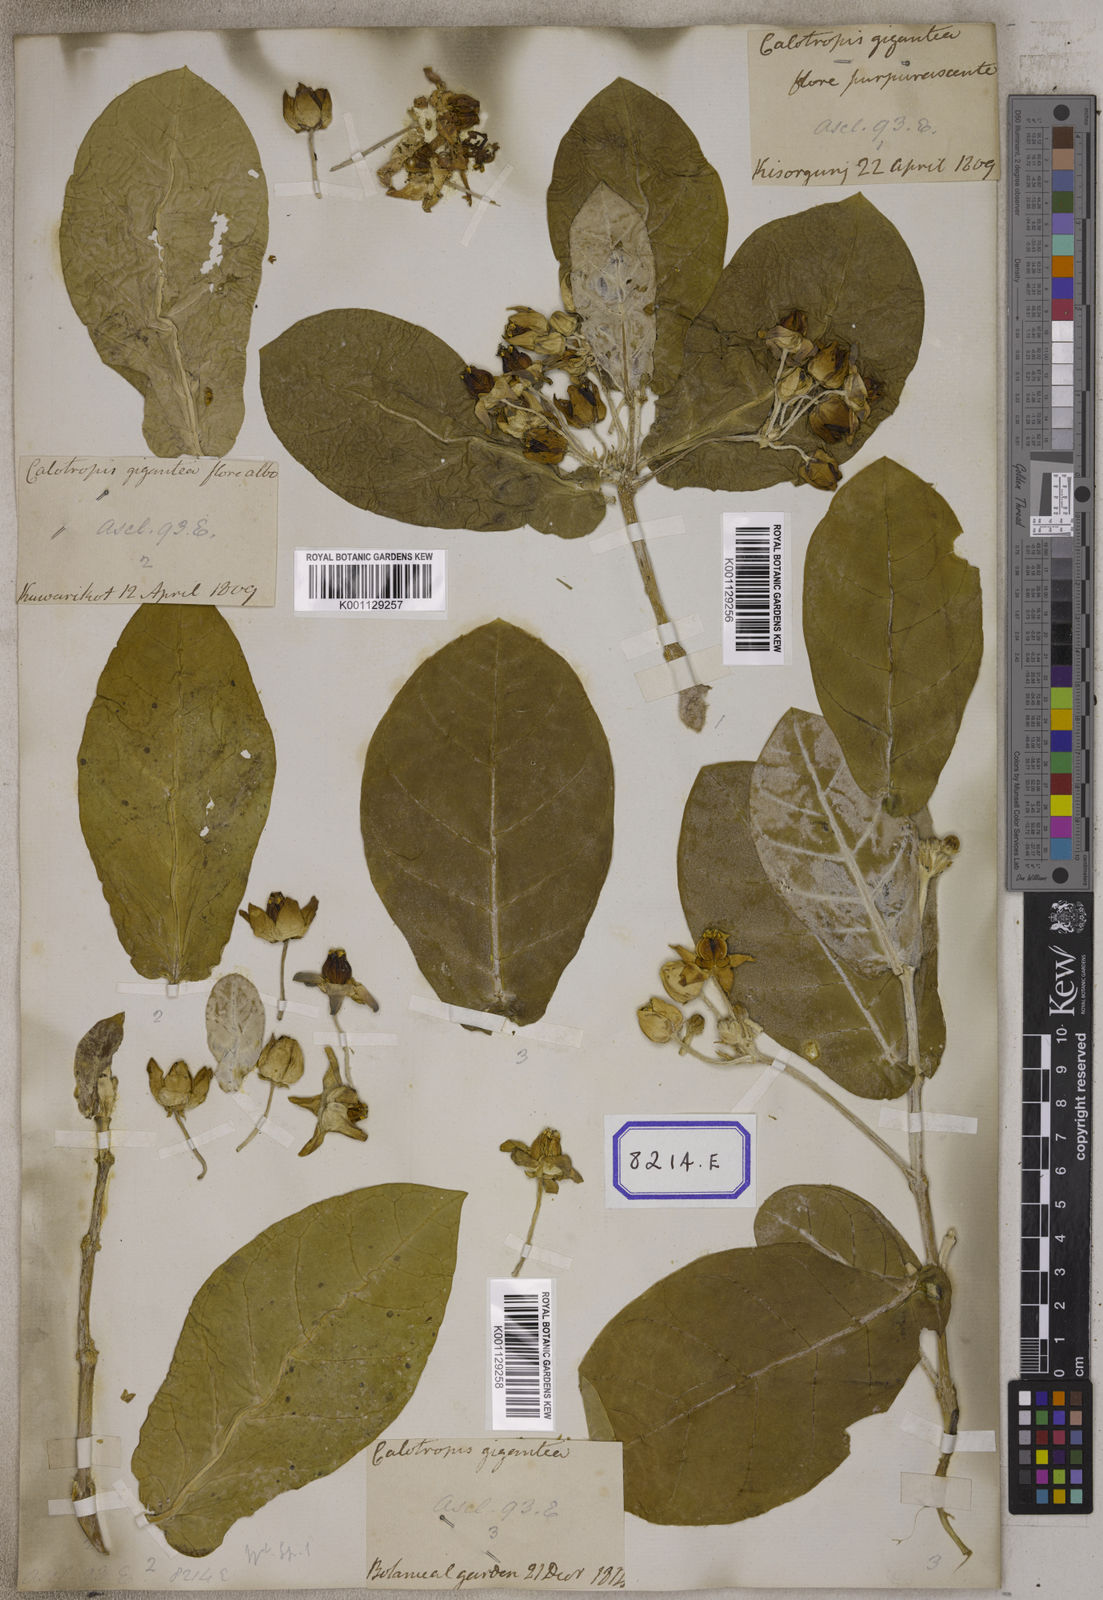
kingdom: Plantae
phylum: Tracheophyta
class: Magnoliopsida
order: Gentianales
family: Apocynaceae
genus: Calotropis
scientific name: Calotropis gigantea
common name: Crown flower
